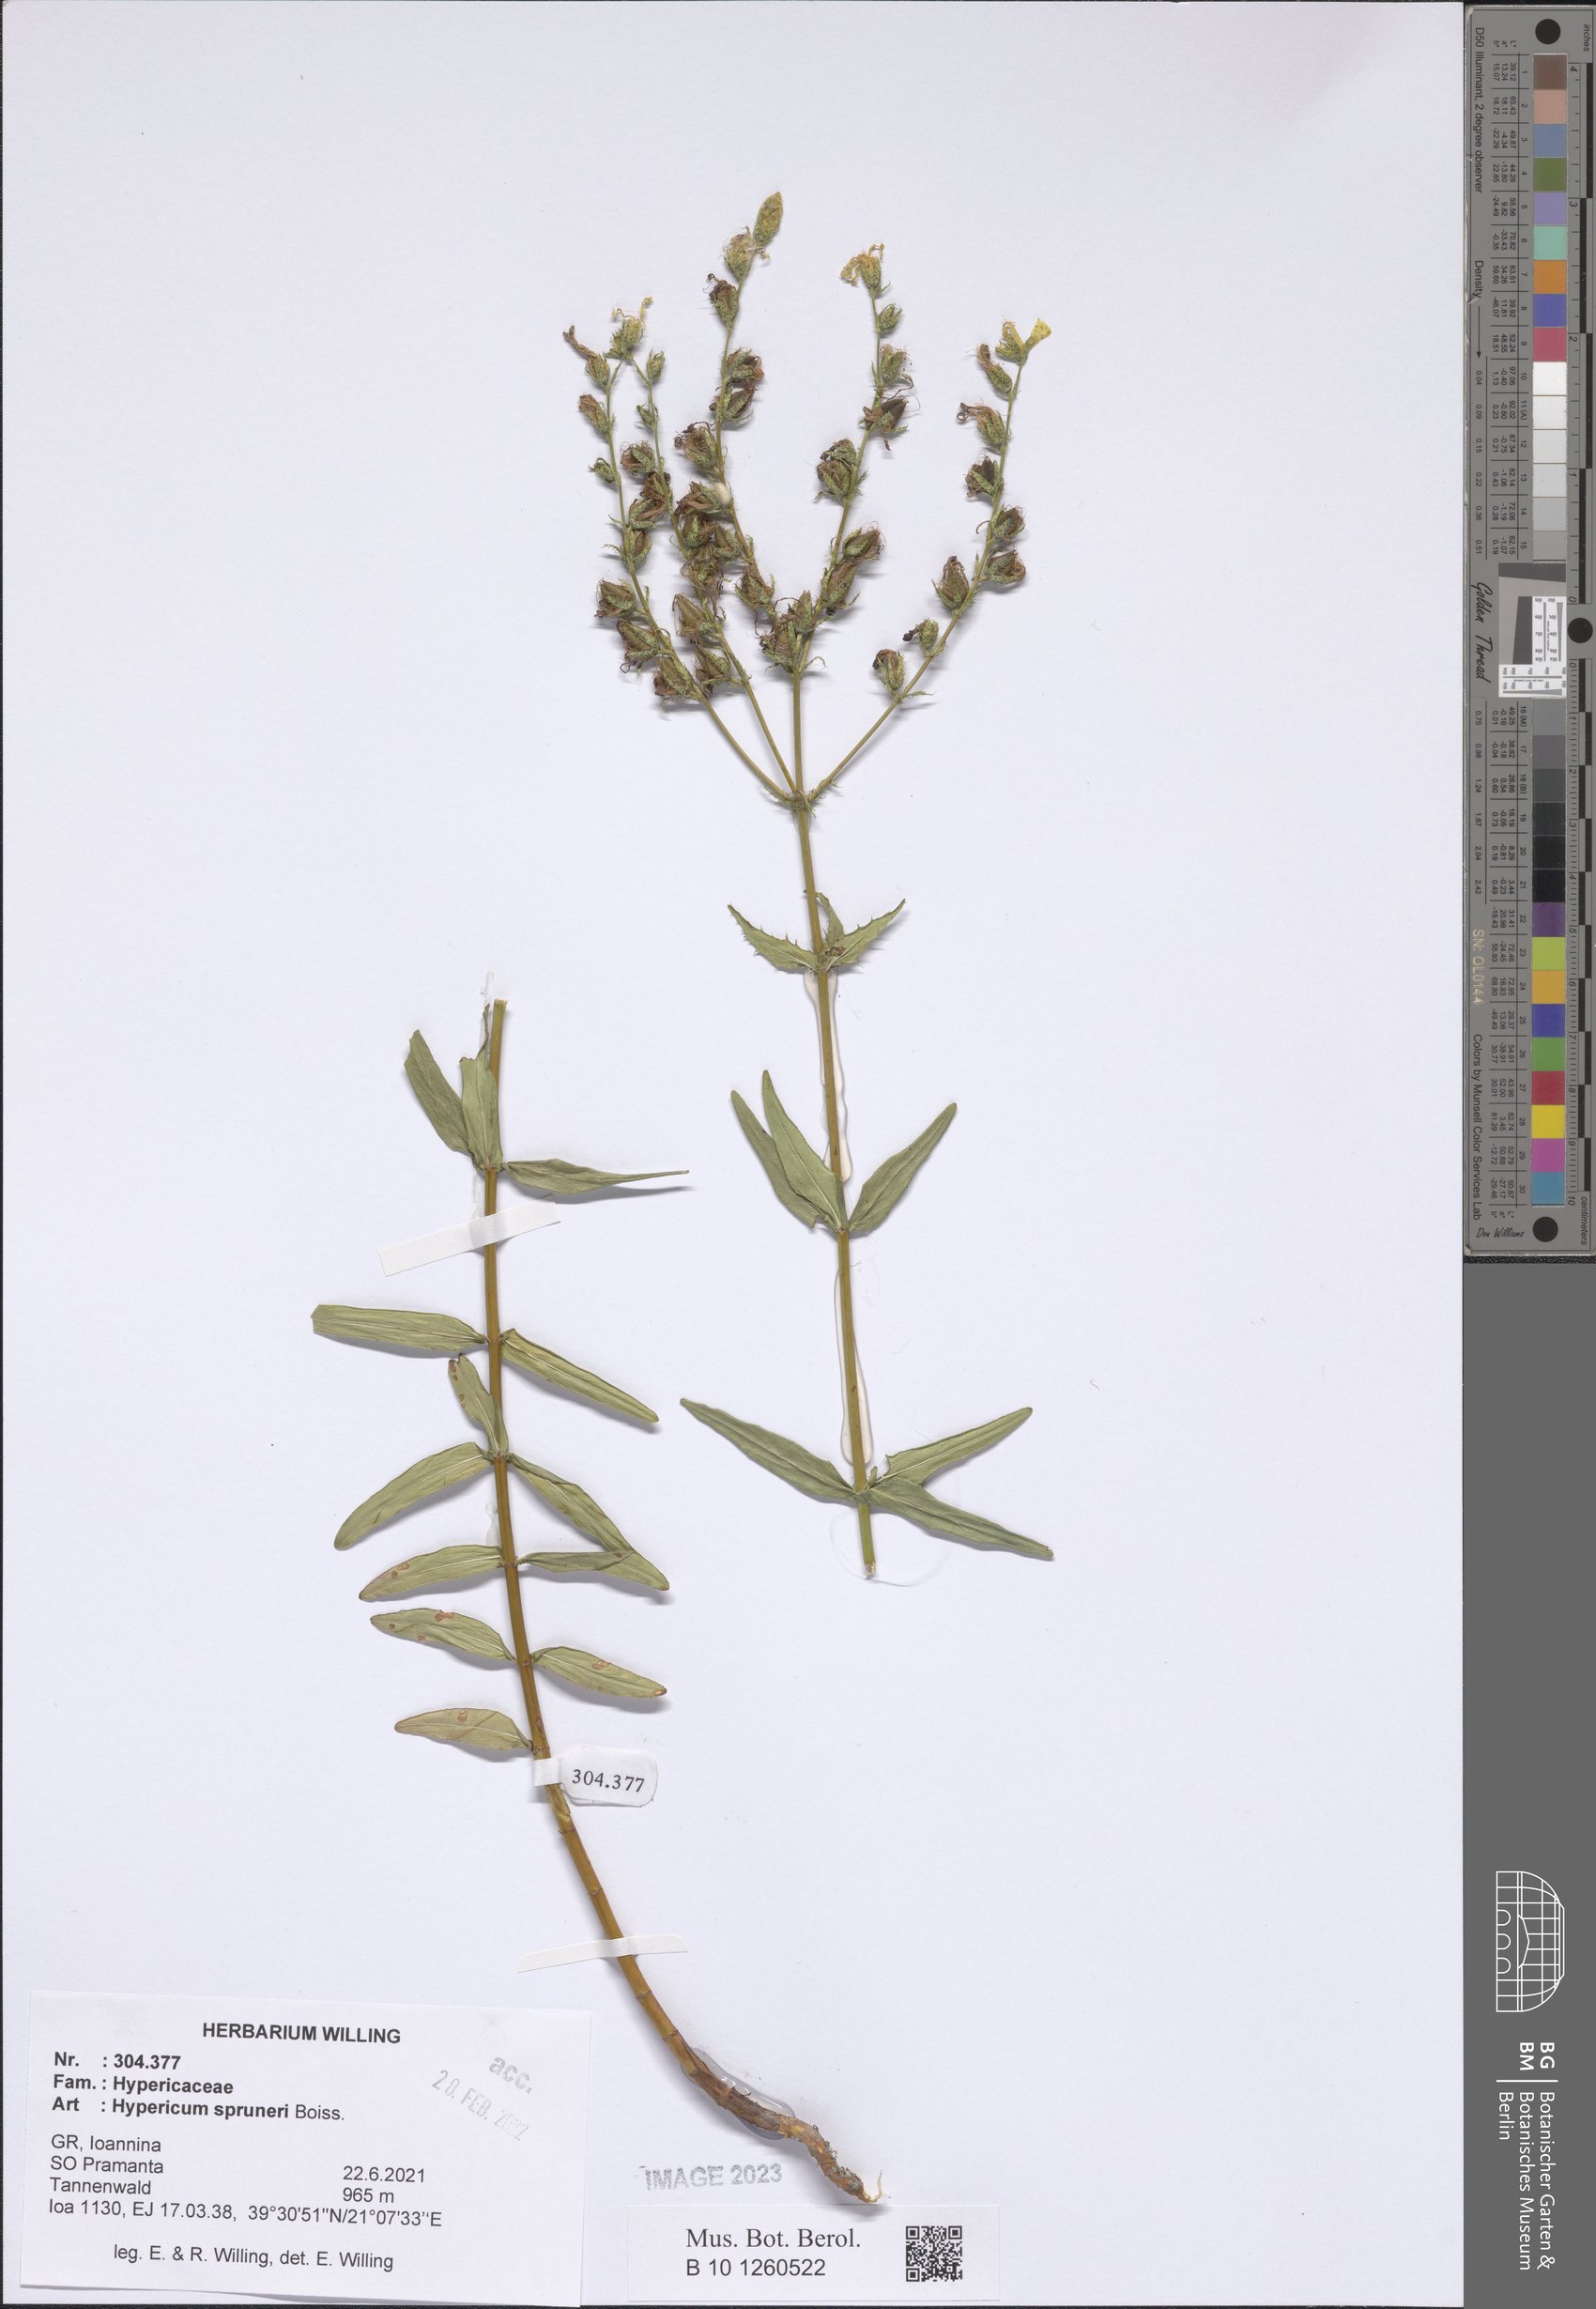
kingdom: Plantae
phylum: Tracheophyta
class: Magnoliopsida
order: Malpighiales
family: Hypericaceae
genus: Hypericum
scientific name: Hypericum spruneri
